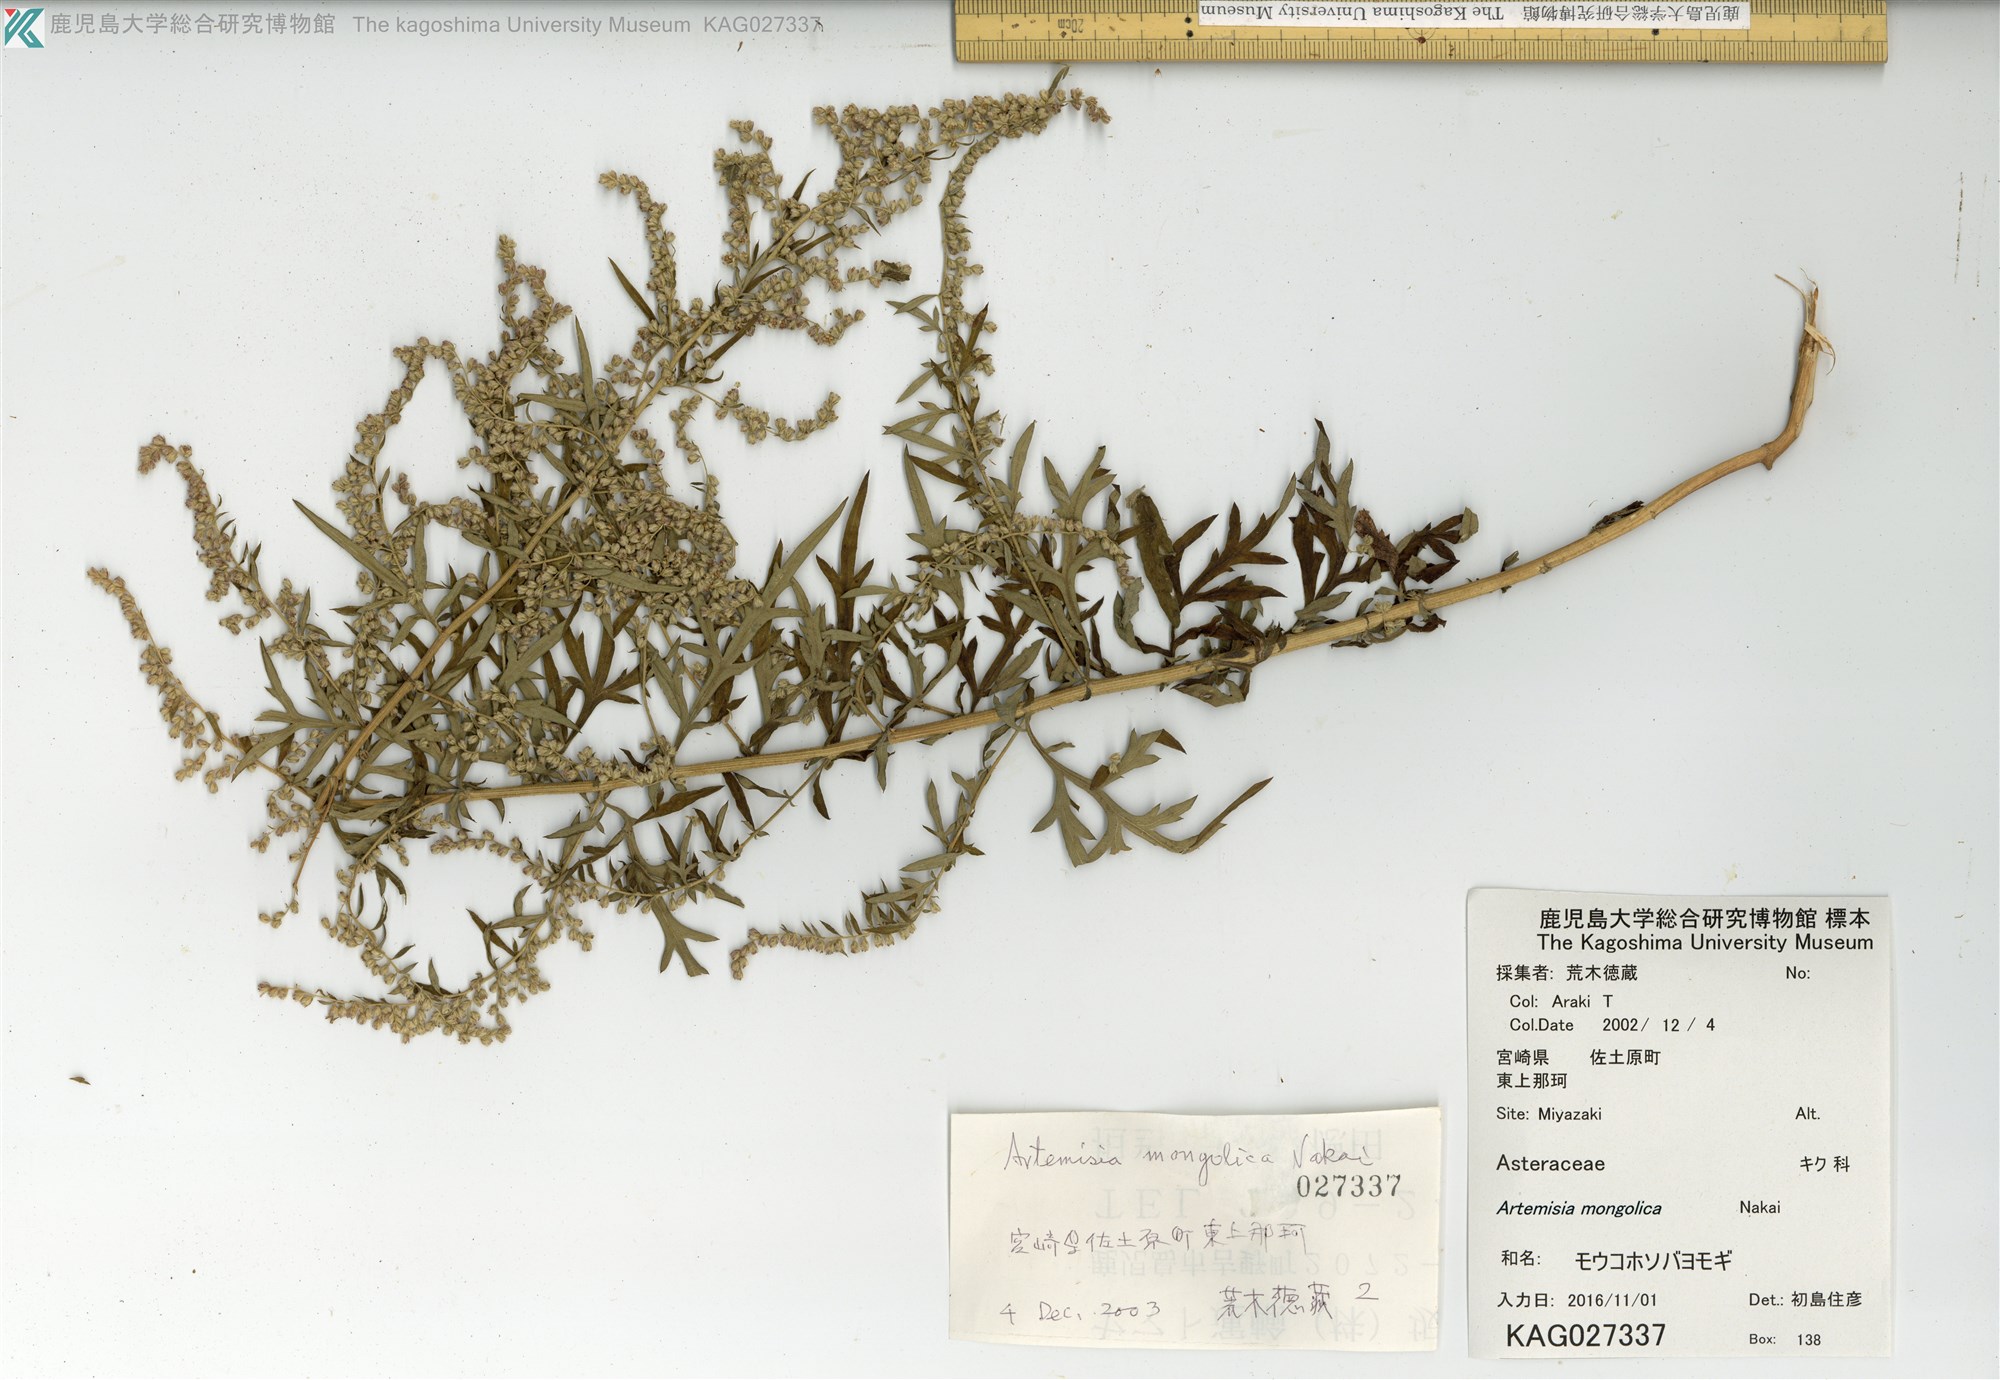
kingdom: Plantae
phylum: Tracheophyta
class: Magnoliopsida
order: Asterales
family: Asteraceae
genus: Artemisia
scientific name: Artemisia mongolica
